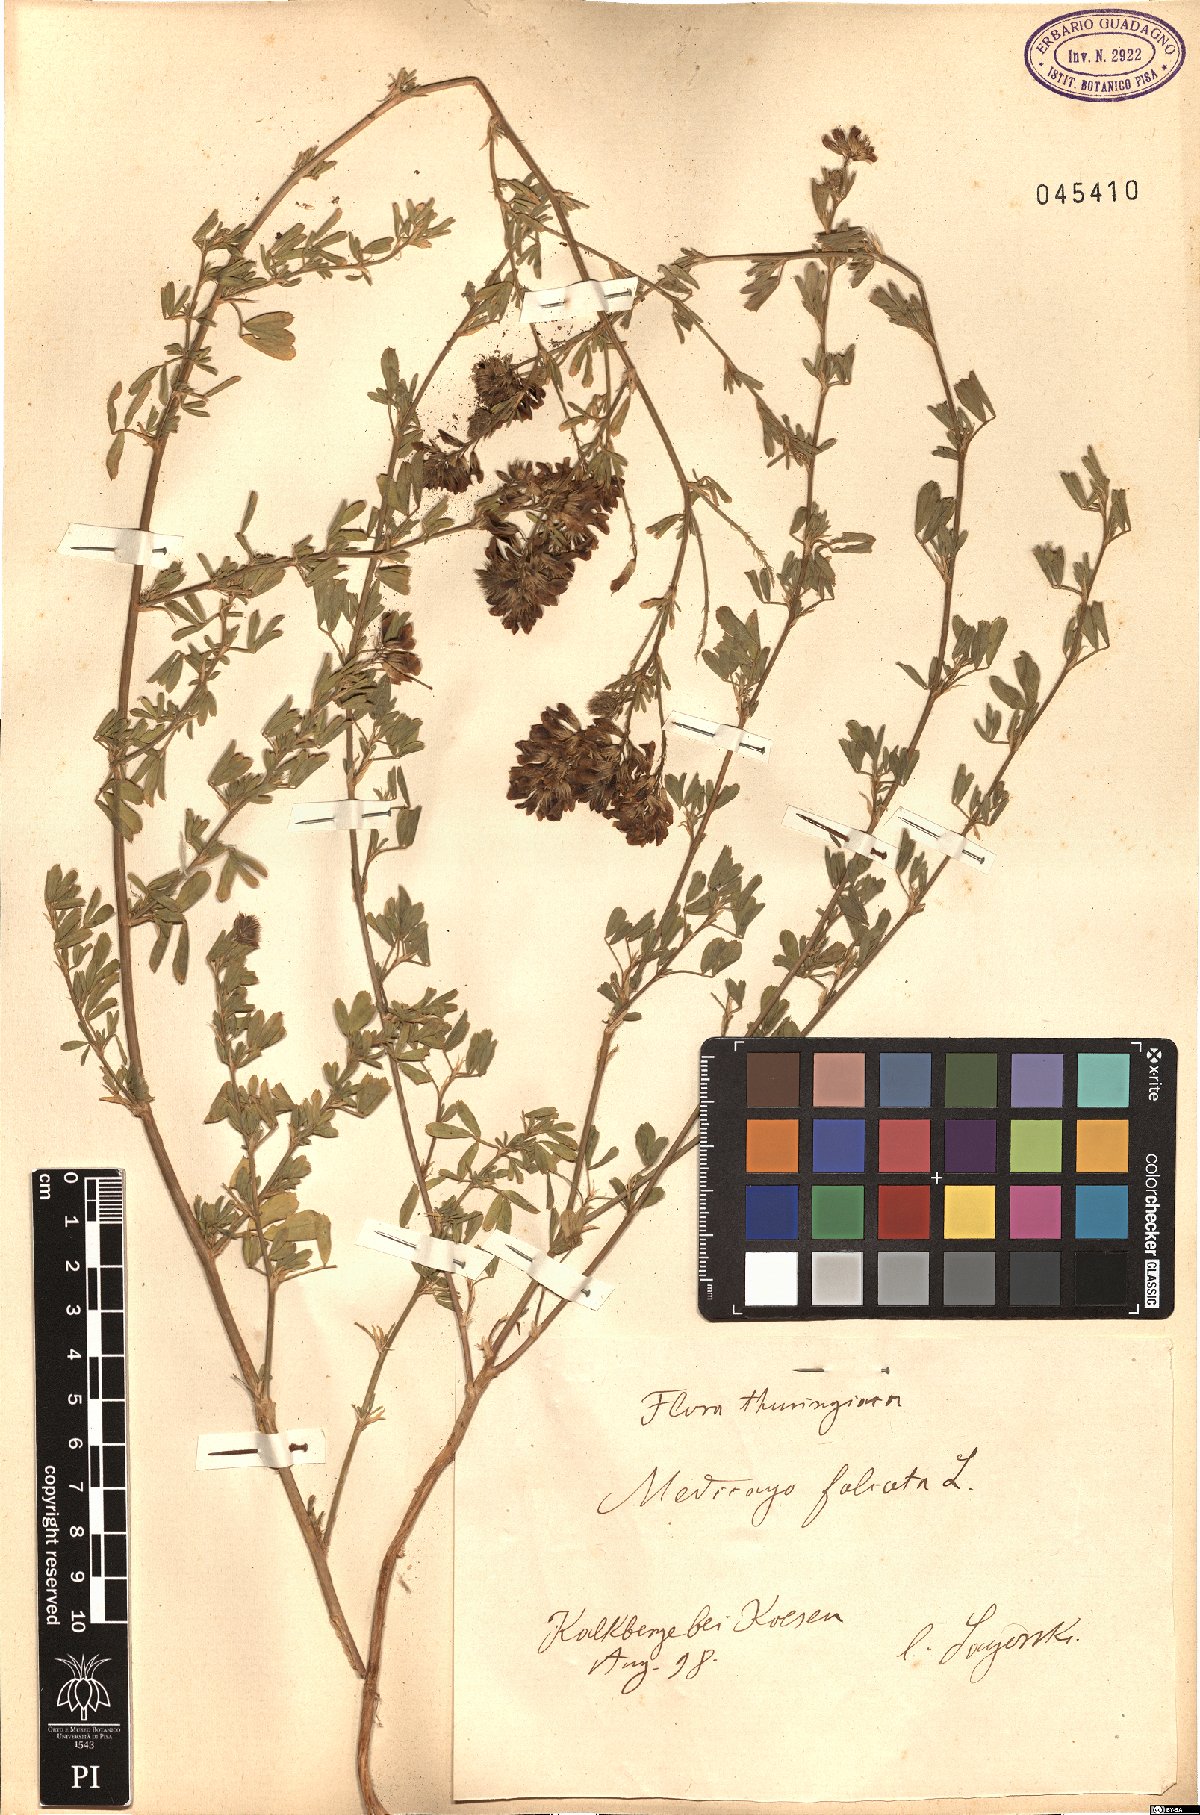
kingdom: Plantae
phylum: Tracheophyta
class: Magnoliopsida
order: Fabales
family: Fabaceae
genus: Medicago
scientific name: Medicago falcata
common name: Sickle medick
